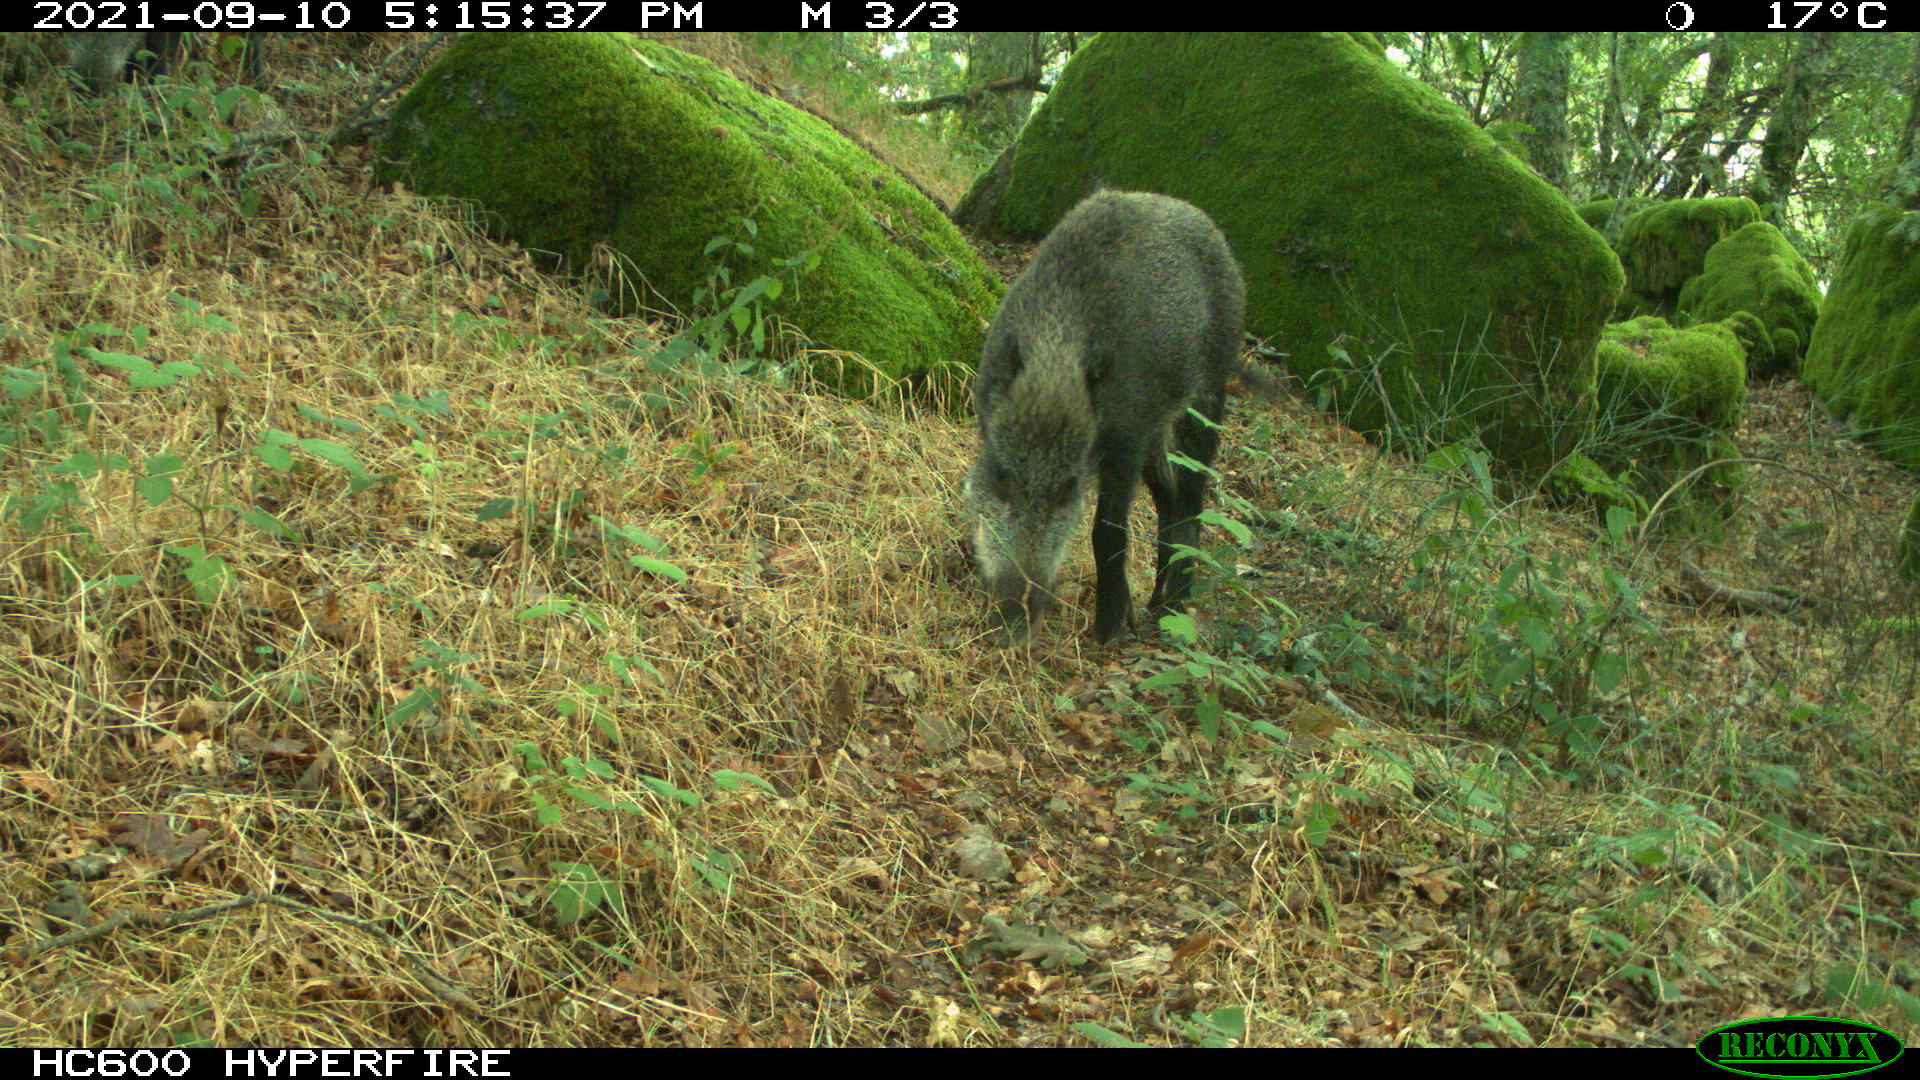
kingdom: Animalia
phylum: Chordata
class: Mammalia
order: Artiodactyla
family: Suidae
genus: Sus
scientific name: Sus scrofa
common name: Wild boar
